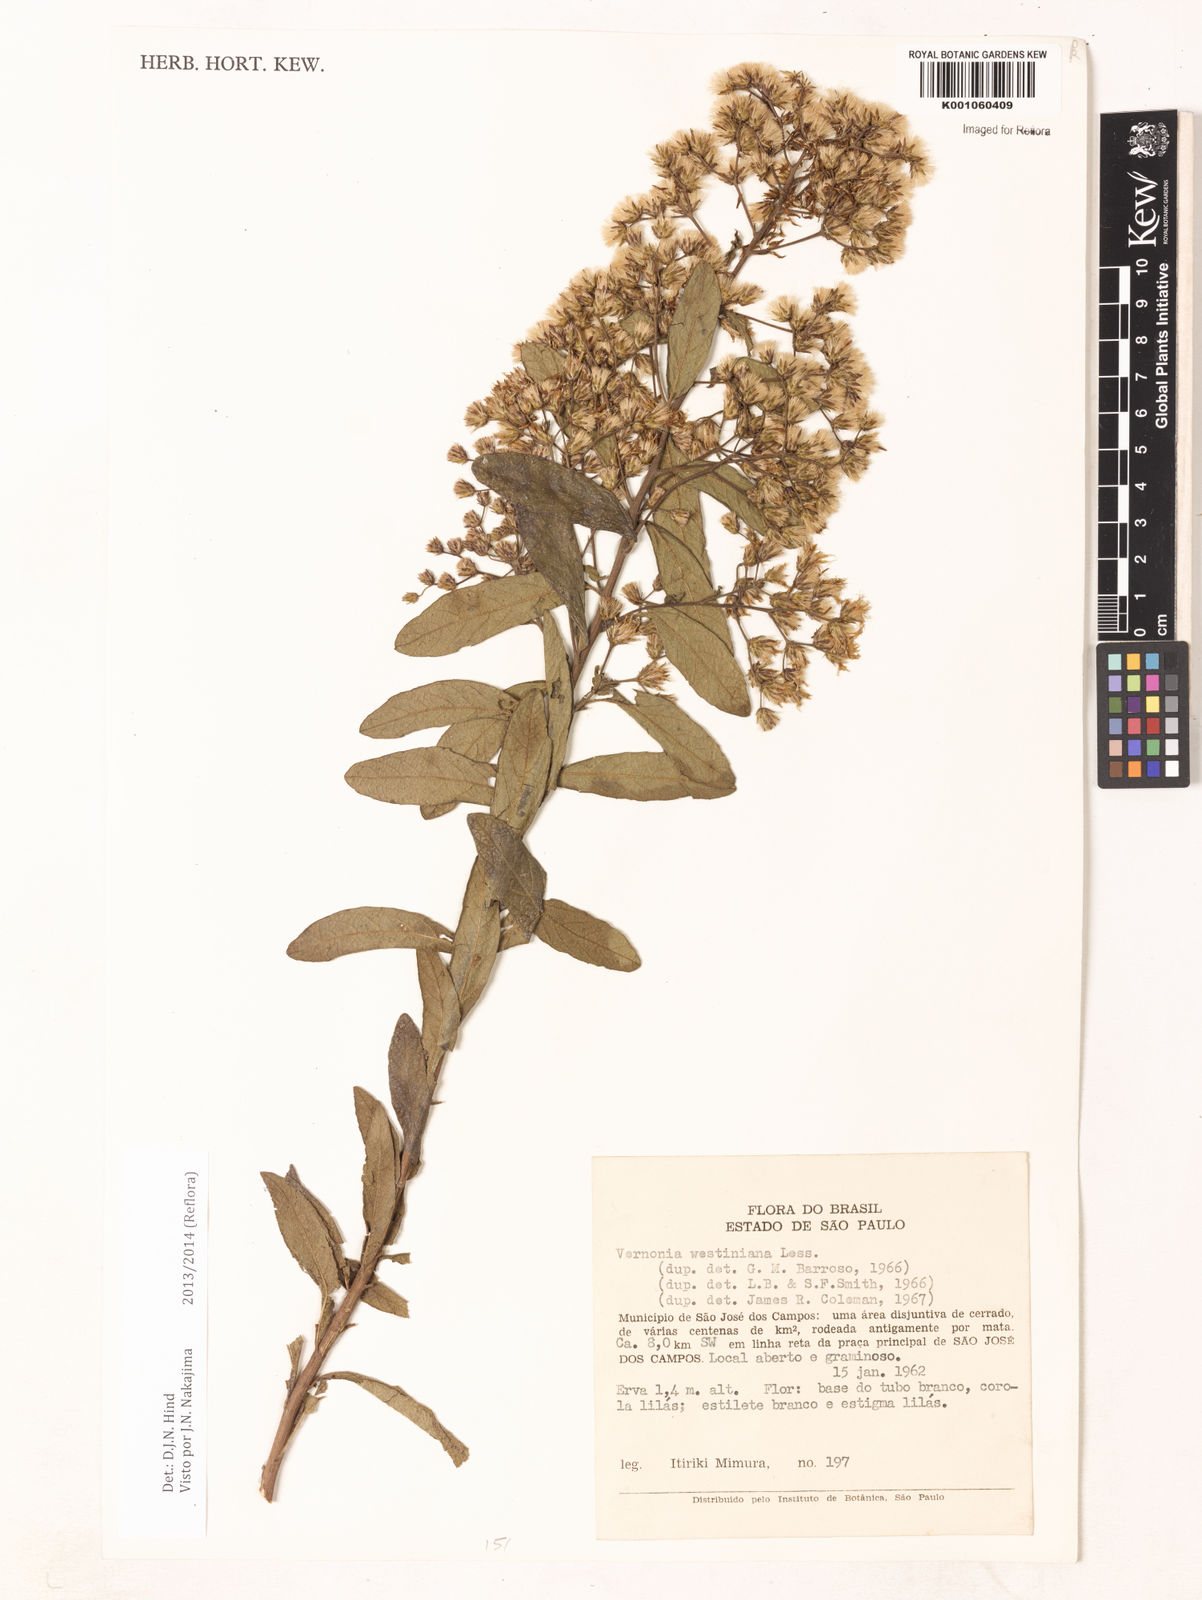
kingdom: Plantae
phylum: Tracheophyta
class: Magnoliopsida
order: Asterales
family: Asteraceae
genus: Vernonanthura
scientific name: Vernonanthura westiniana
